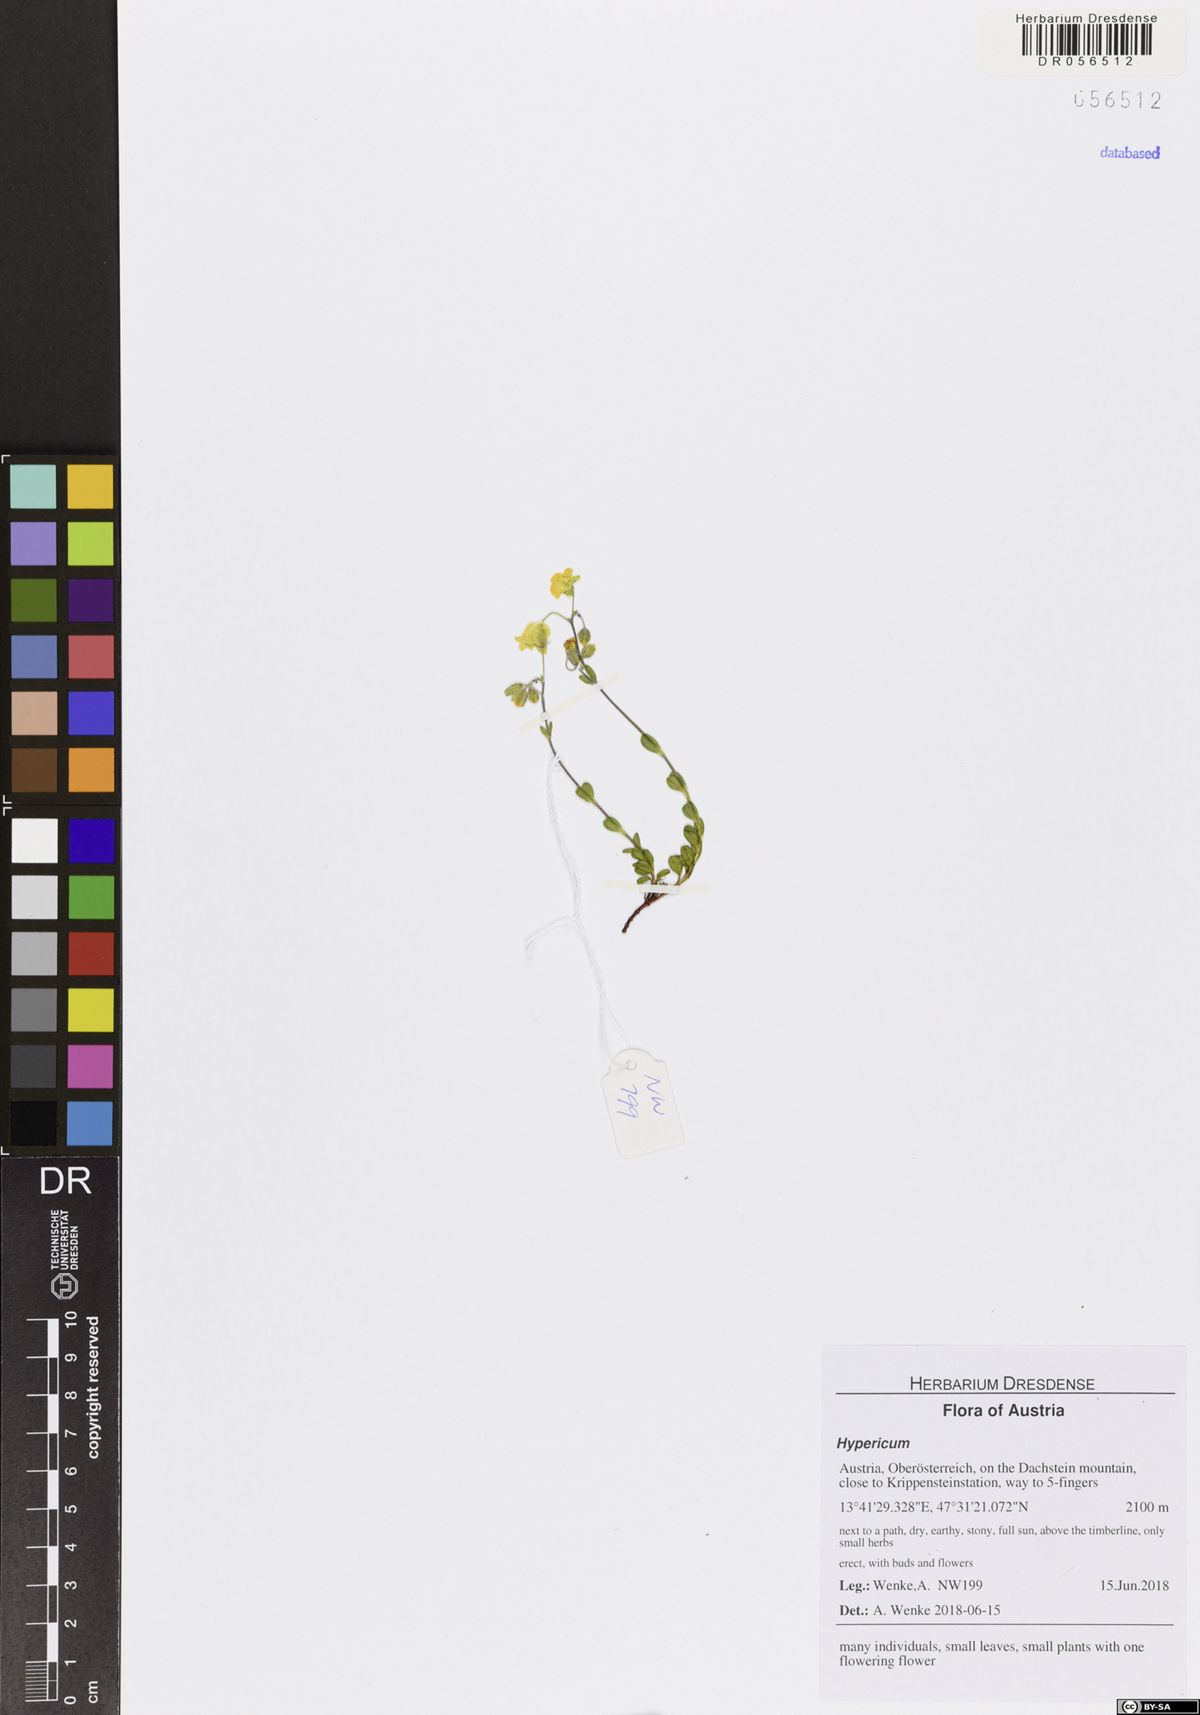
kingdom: Plantae
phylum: Tracheophyta
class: Magnoliopsida
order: Malpighiales
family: Hypericaceae
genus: Hypericum
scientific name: Hypericum
